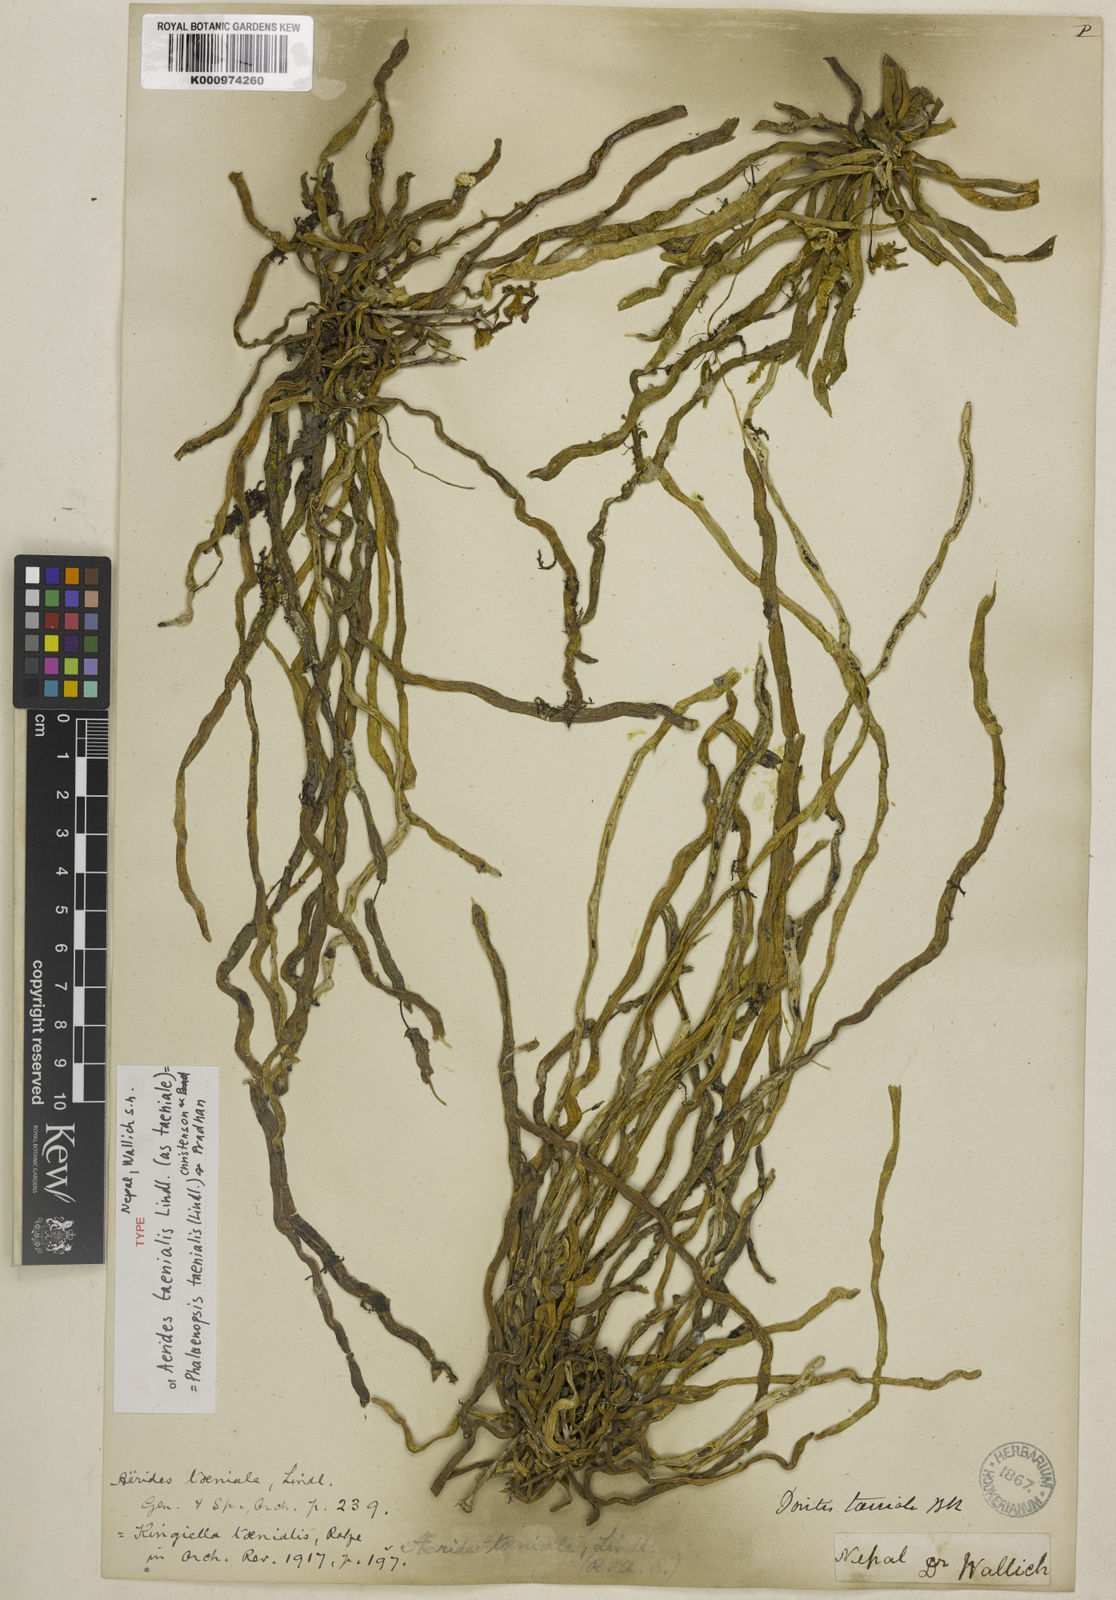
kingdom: Plantae
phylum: Tracheophyta
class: Liliopsida
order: Asparagales
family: Orchidaceae
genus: Phalaenopsis
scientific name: Phalaenopsis taenialis
